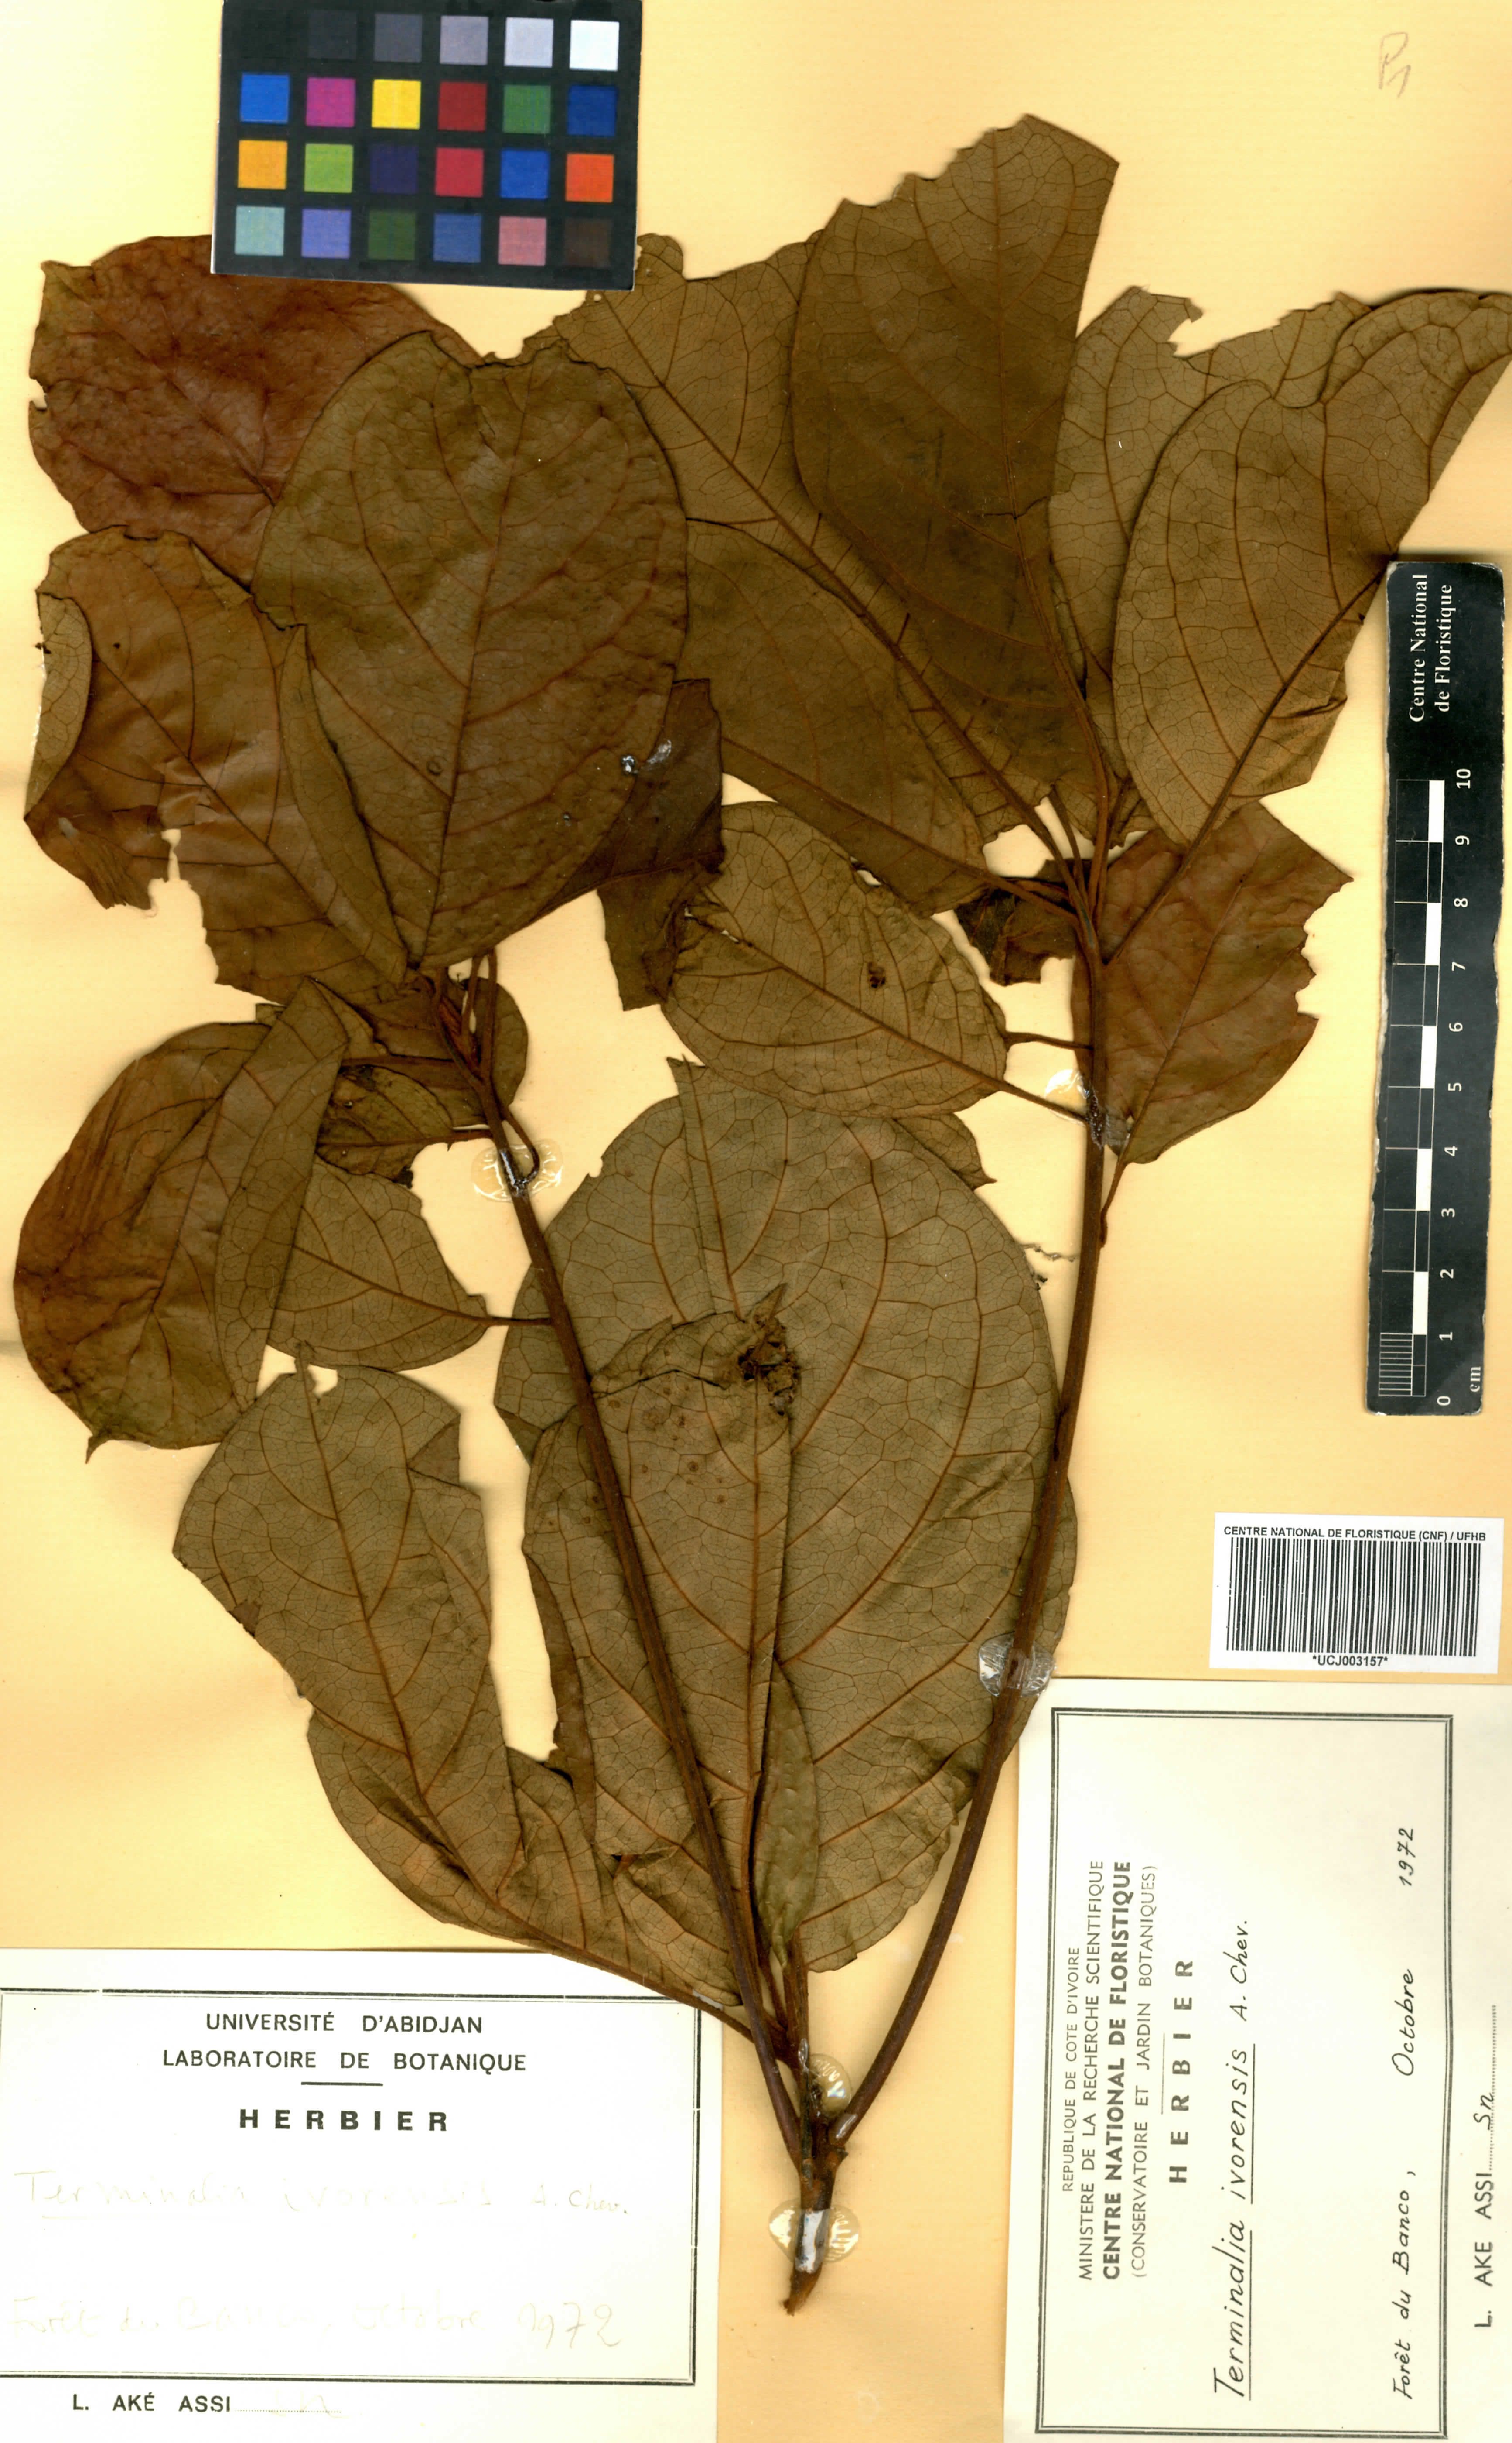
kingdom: Plantae
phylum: Tracheophyta
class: Magnoliopsida
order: Myrtales
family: Combretaceae
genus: Terminalia
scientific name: Terminalia ivorensis
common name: Black afara
